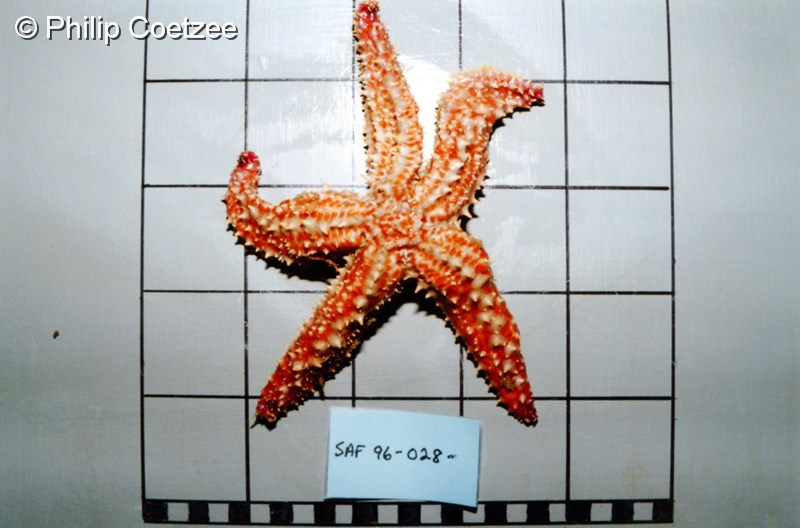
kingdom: Animalia
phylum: Echinodermata
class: Asteroidea
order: Forcipulatida
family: Asteriidae
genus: Marthasterias
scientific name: Marthasterias glacialis
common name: Spiny starfish
